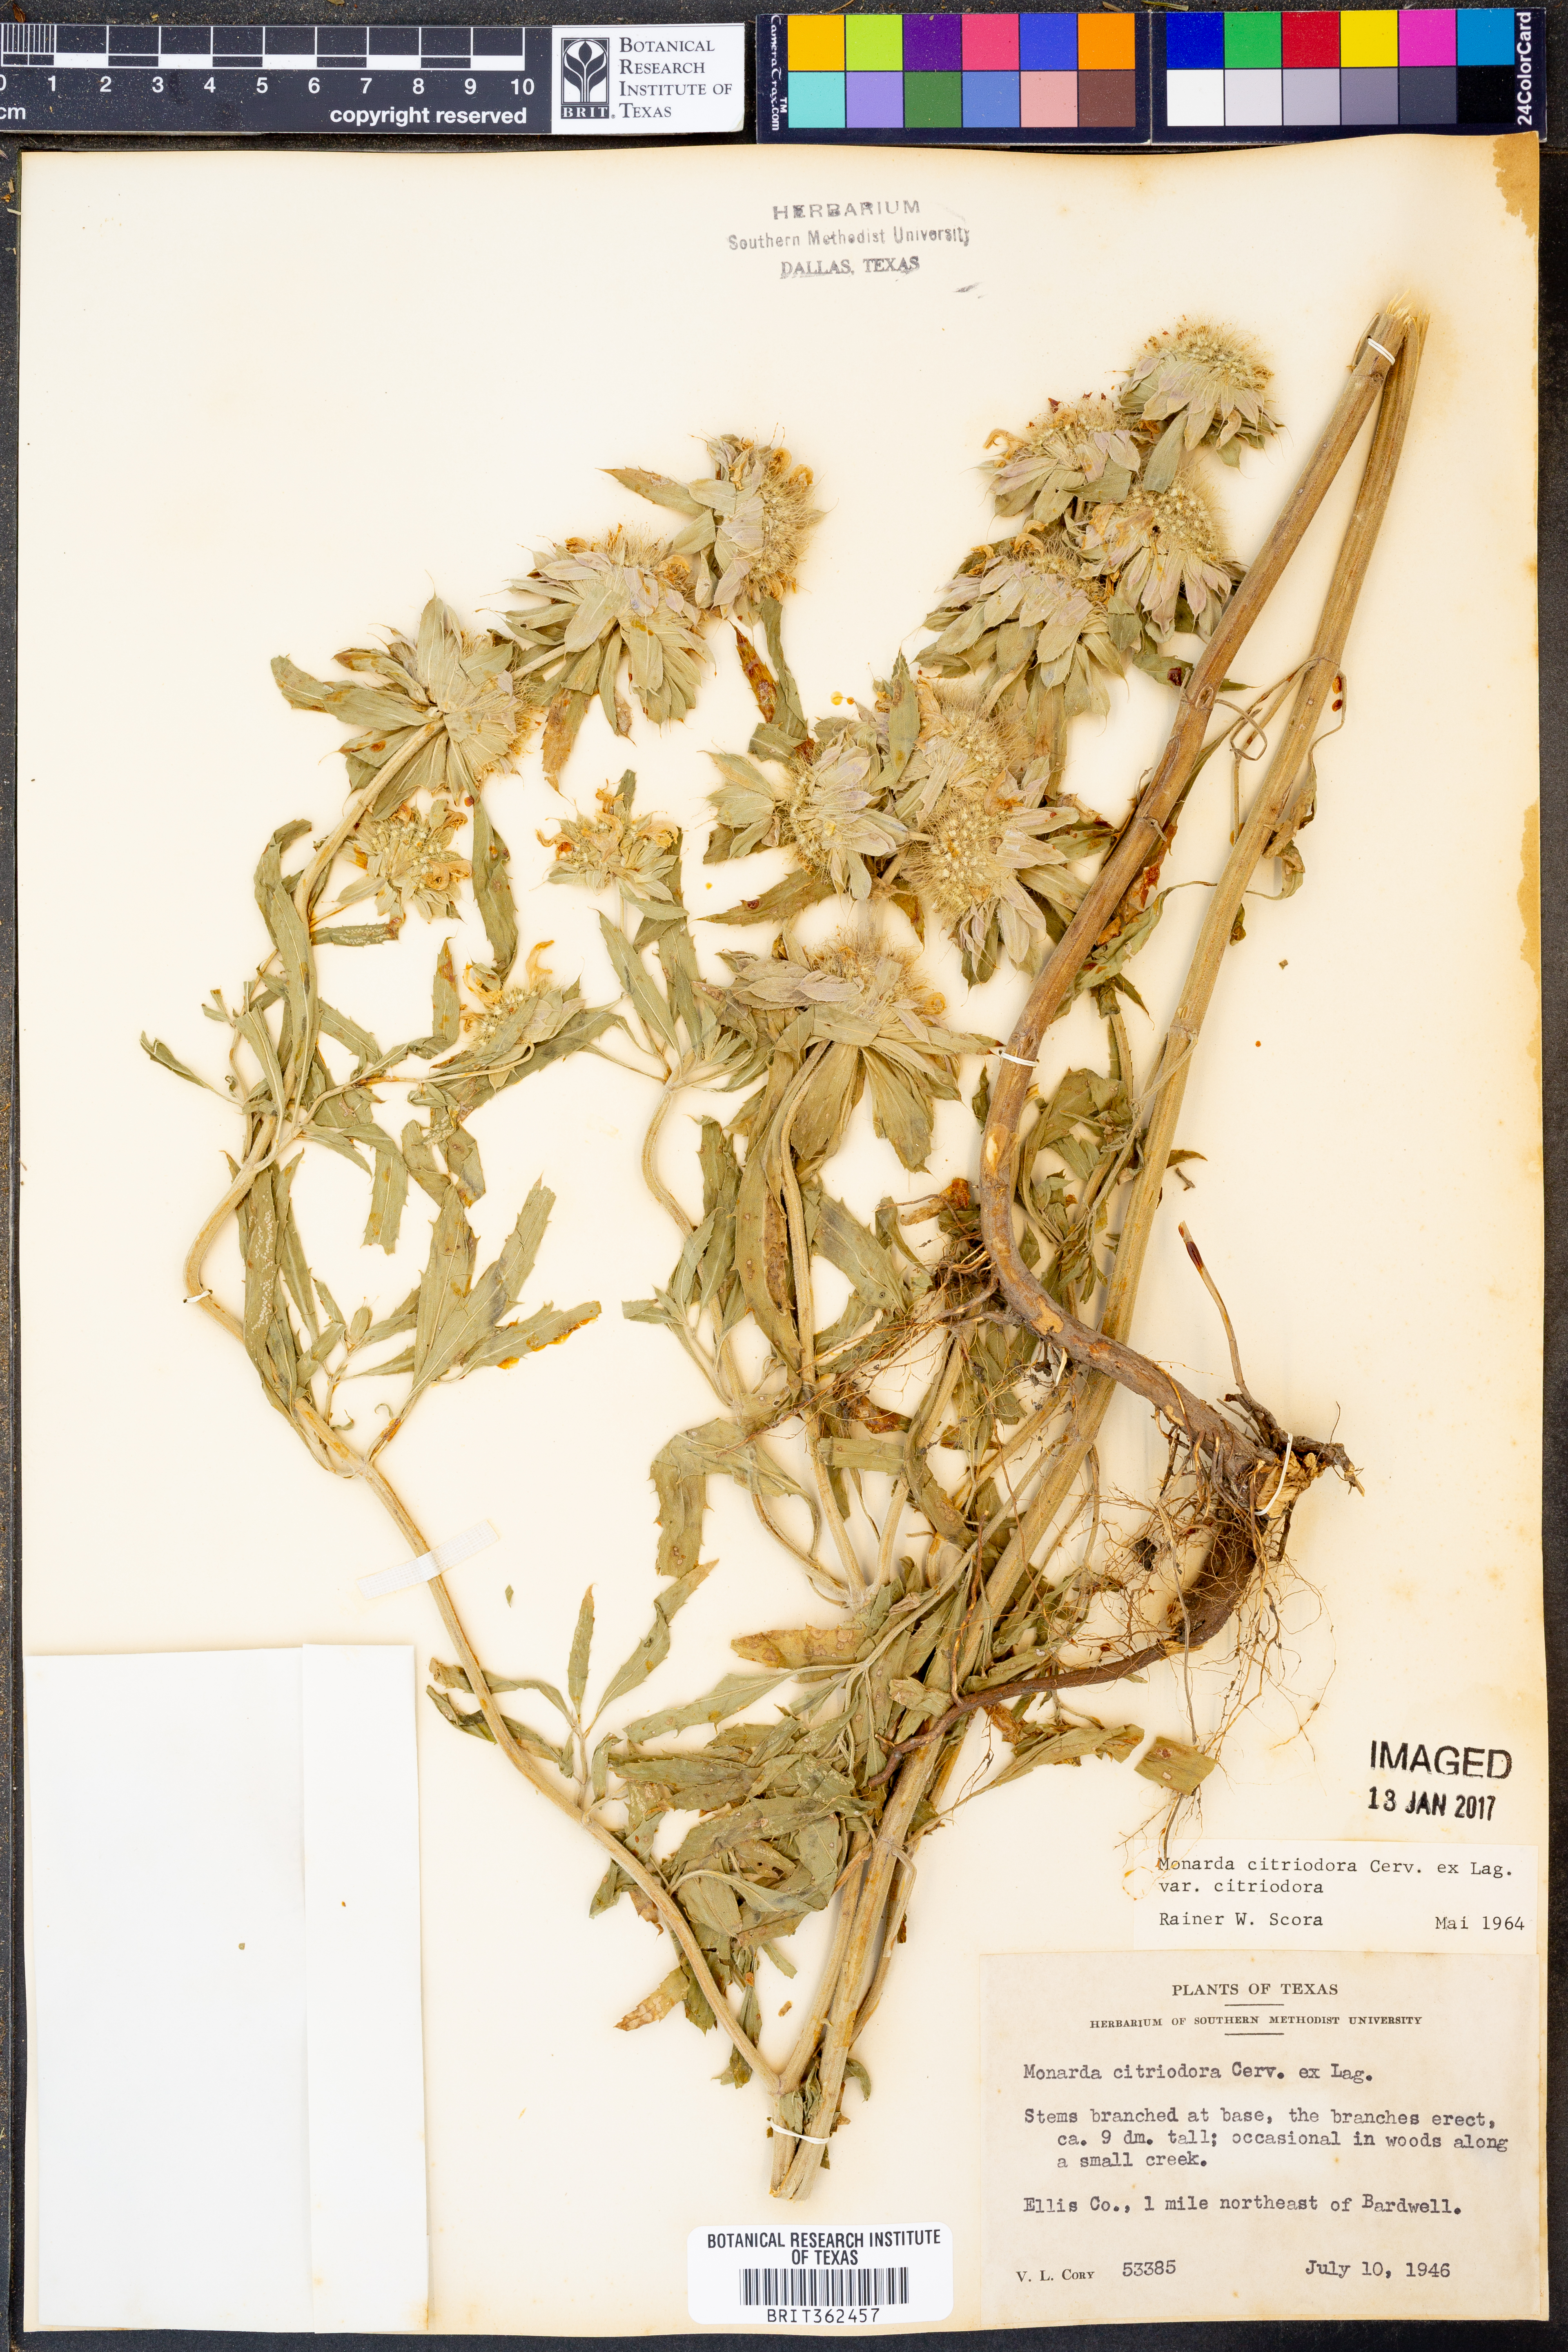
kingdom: Plantae
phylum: Tracheophyta
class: Magnoliopsida
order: Lamiales
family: Lamiaceae
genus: Monarda
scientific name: Monarda citriodora
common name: Lemon beebalm
